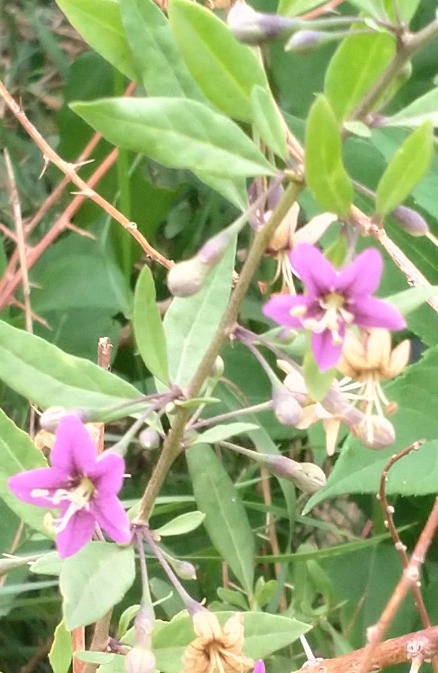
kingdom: Plantae
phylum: Tracheophyta
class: Magnoliopsida
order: Solanales
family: Solanaceae
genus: Lycium
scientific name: Lycium barbarum
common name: Bukketorn
